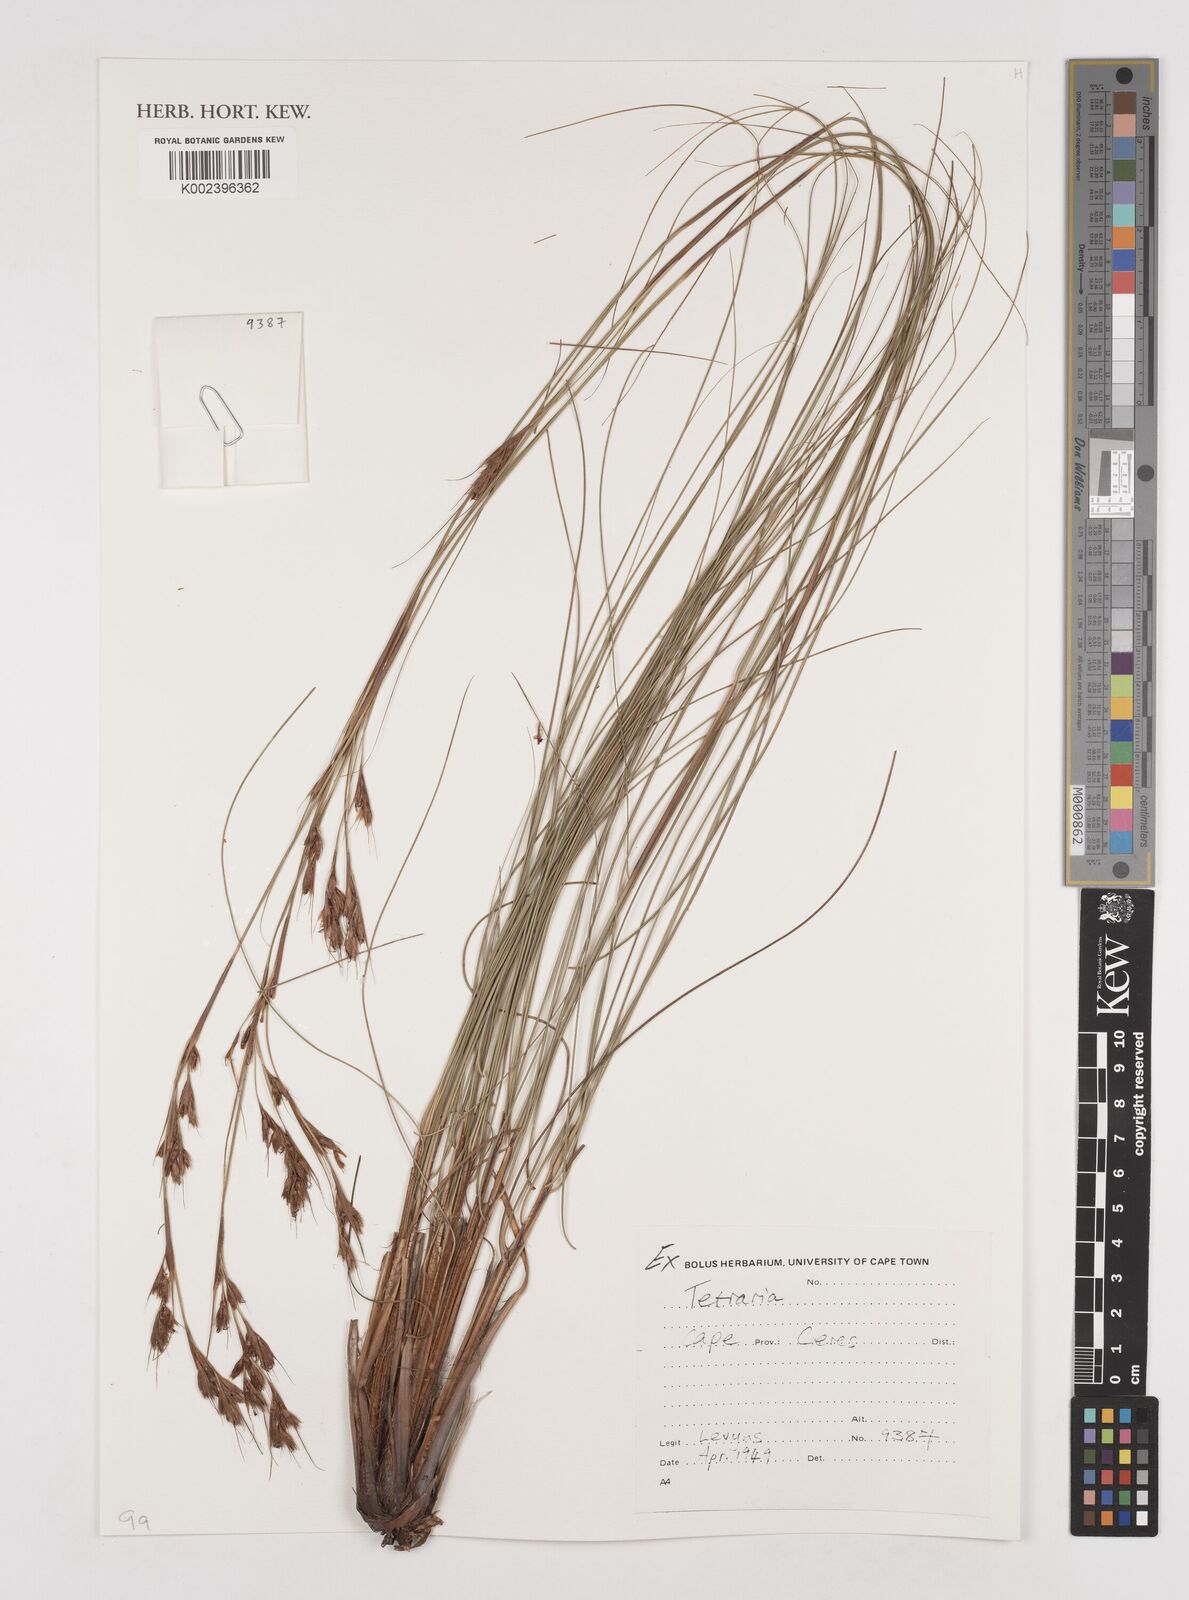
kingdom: Plantae
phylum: Tracheophyta
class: Liliopsida
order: Poales
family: Cyperaceae
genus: Tetraria
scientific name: Tetraria
